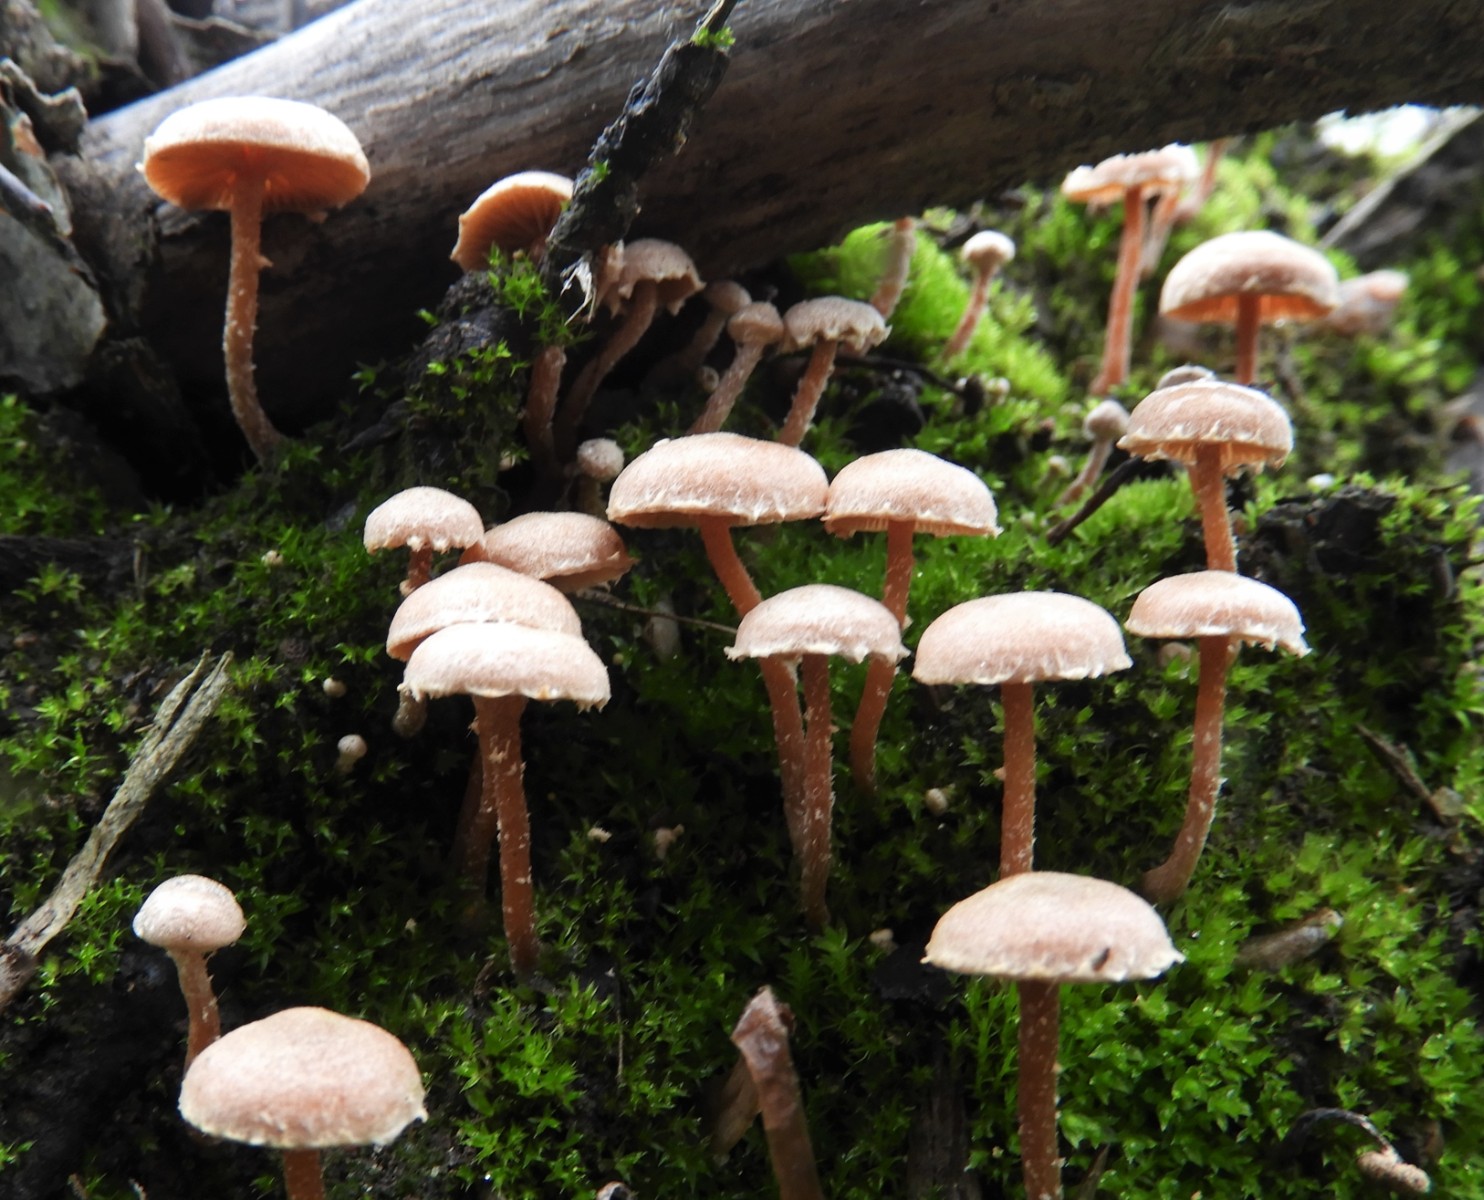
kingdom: Fungi
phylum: Basidiomycota
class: Agaricomycetes
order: Agaricales
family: Tubariaceae
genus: Tubaria
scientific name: Tubaria furfuracea
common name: kliddet fnughat
